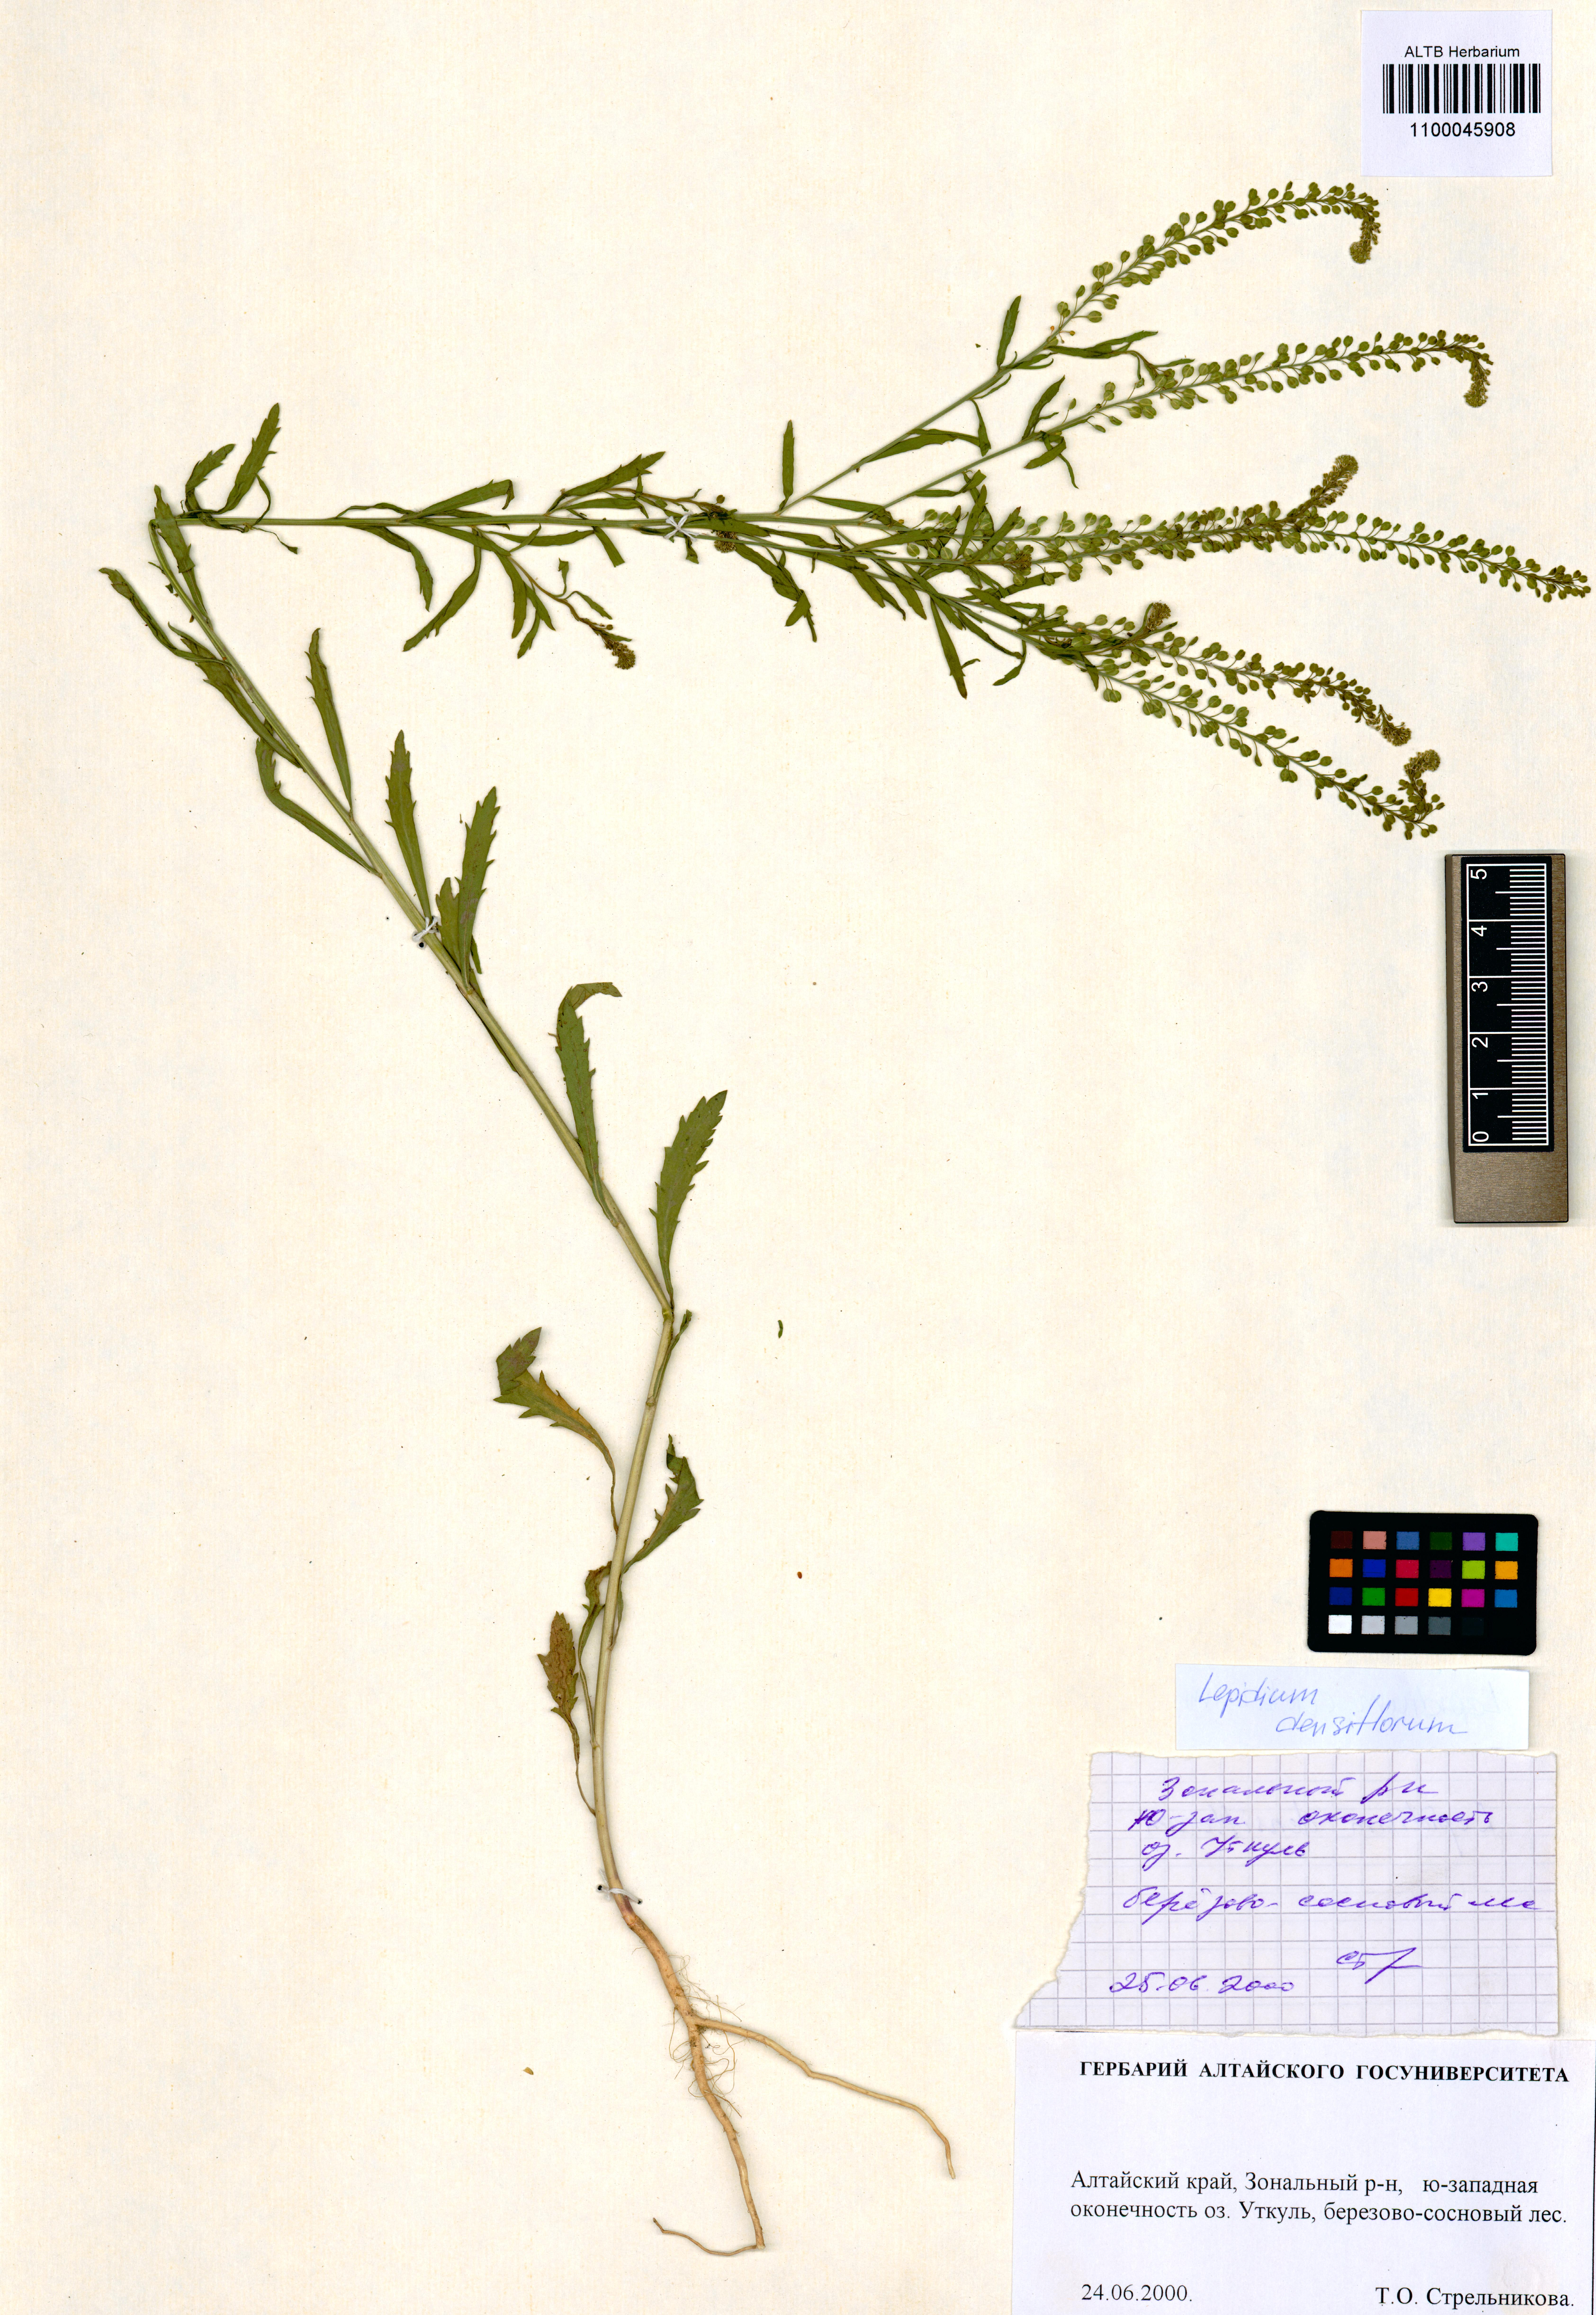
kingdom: Plantae
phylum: Tracheophyta
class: Magnoliopsida
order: Brassicales
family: Brassicaceae
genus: Lepidium
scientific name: Lepidium densiflorum
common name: Miner's pepperwort
